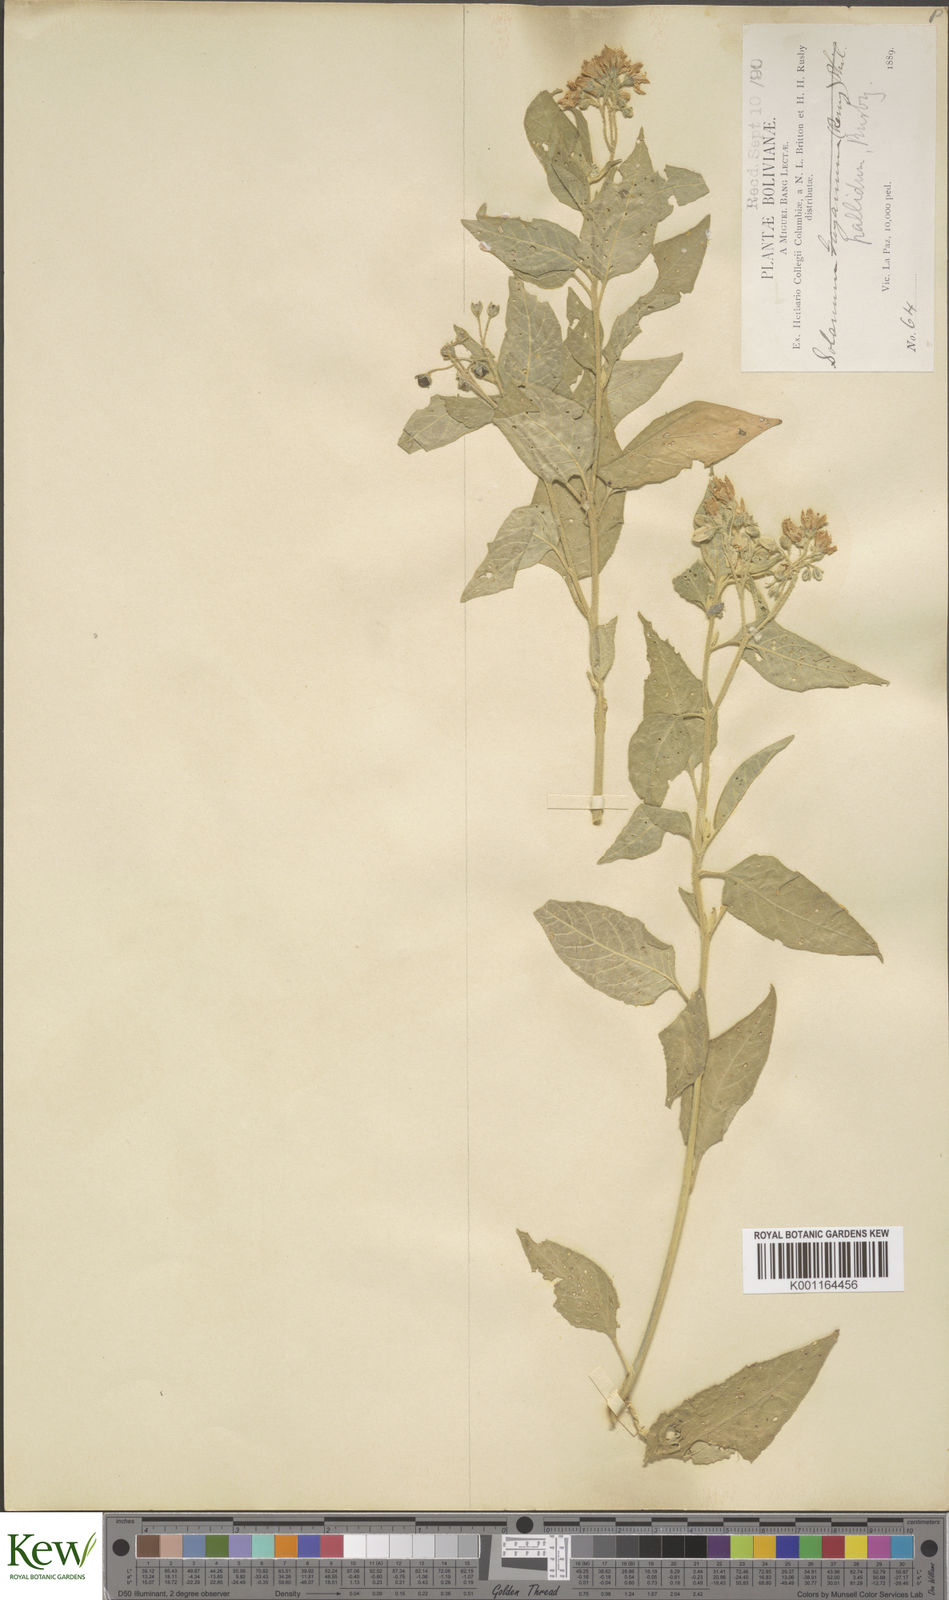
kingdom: Plantae
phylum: Tracheophyta
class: Magnoliopsida
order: Solanales
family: Solanaceae
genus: Solanum
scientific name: Solanum pallidum
